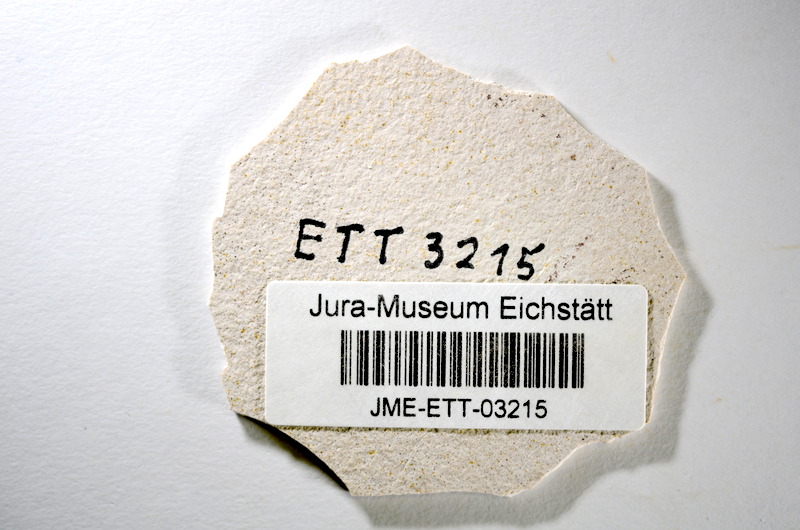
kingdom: Animalia
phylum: Chordata
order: Salmoniformes
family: Orthogonikleithridae
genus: Orthogonikleithrus
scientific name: Orthogonikleithrus hoelli
